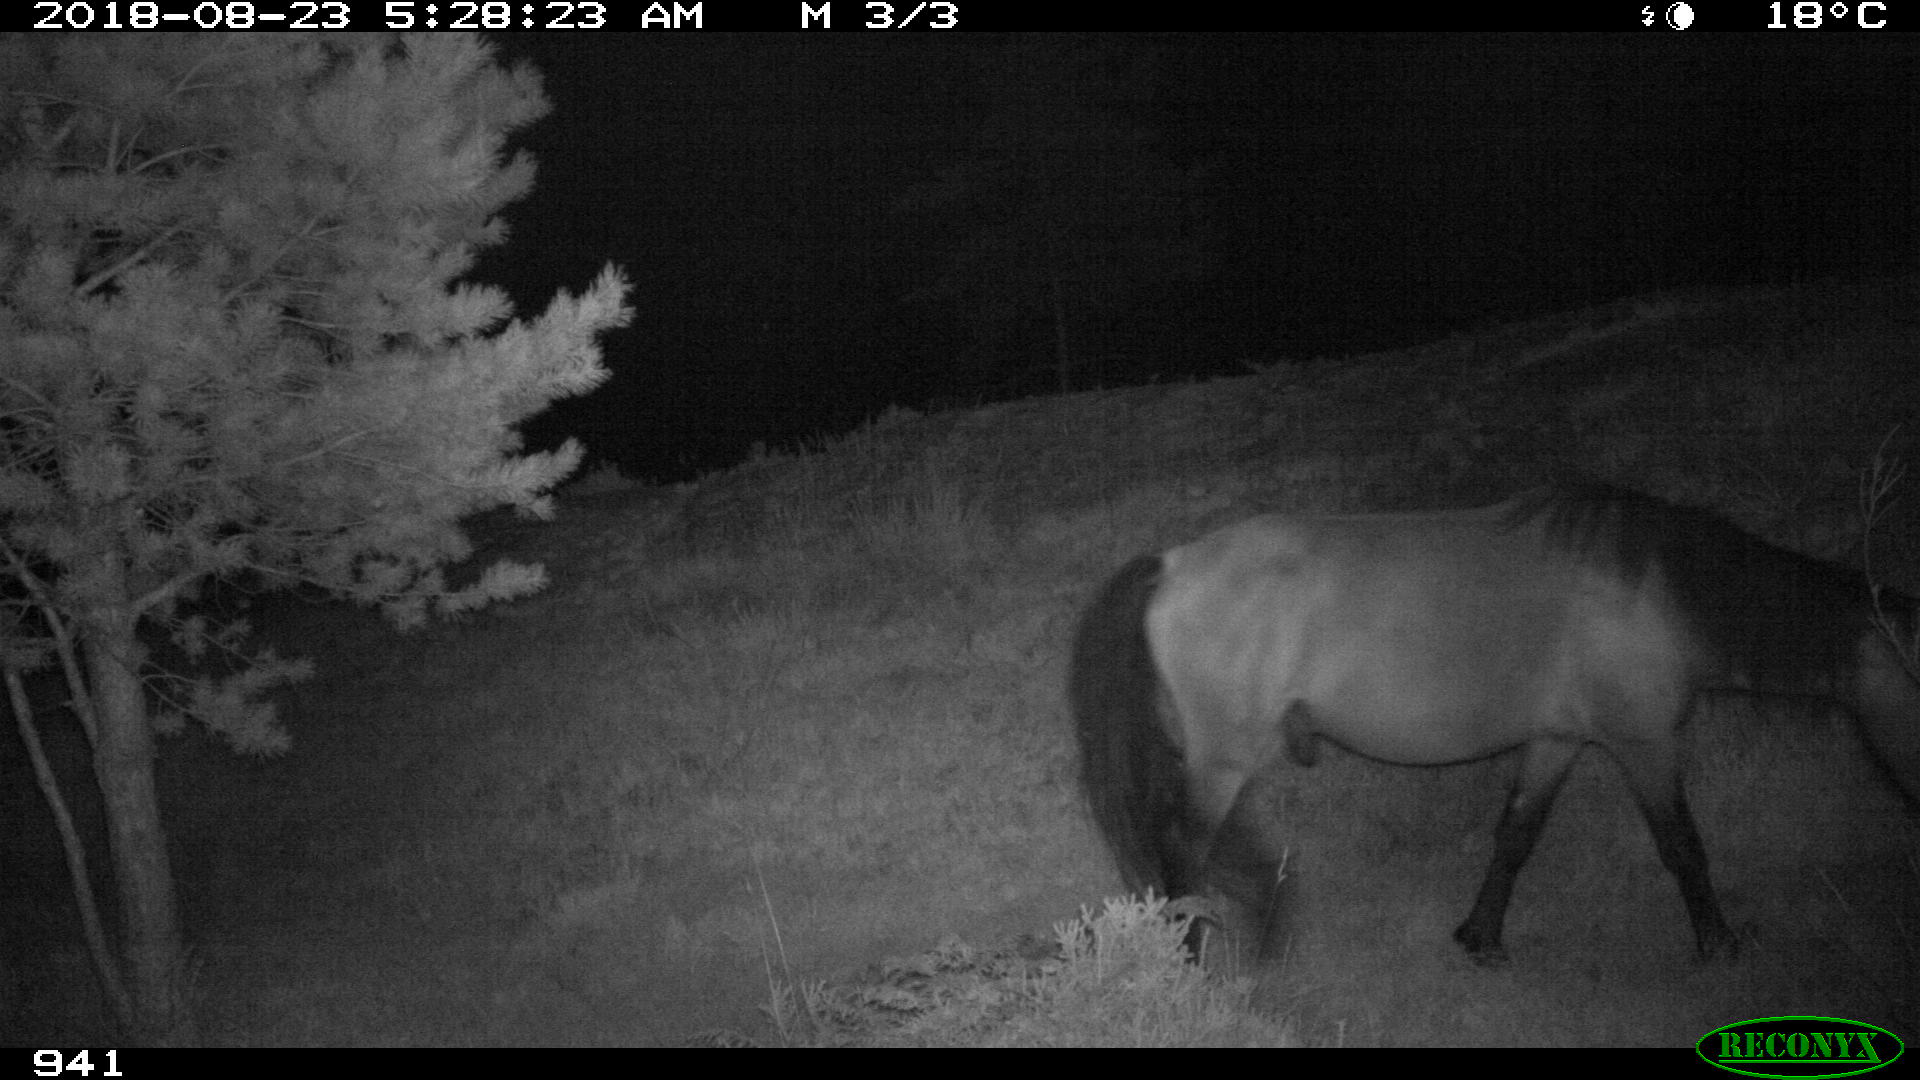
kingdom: Animalia
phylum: Chordata
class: Mammalia
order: Perissodactyla
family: Equidae
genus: Equus
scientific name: Equus caballus
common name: Horse
